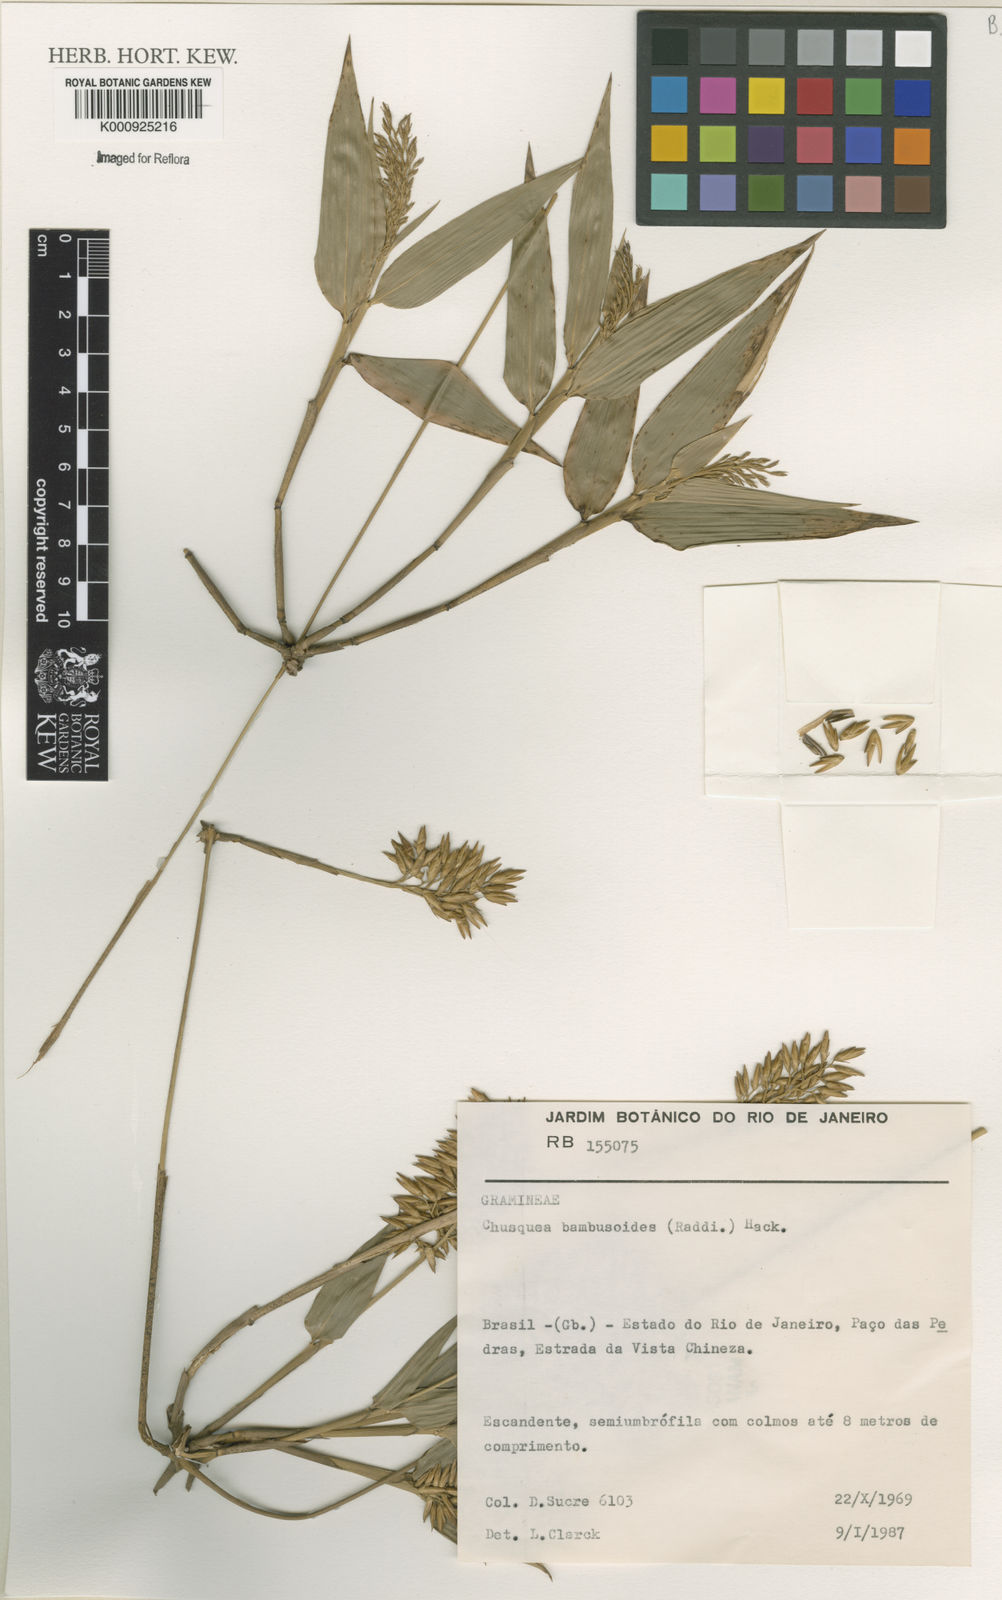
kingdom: Plantae
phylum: Tracheophyta
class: Liliopsida
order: Poales
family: Poaceae
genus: Chusquea
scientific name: Chusquea bambusoides
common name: Brazil scrambling bamboo
